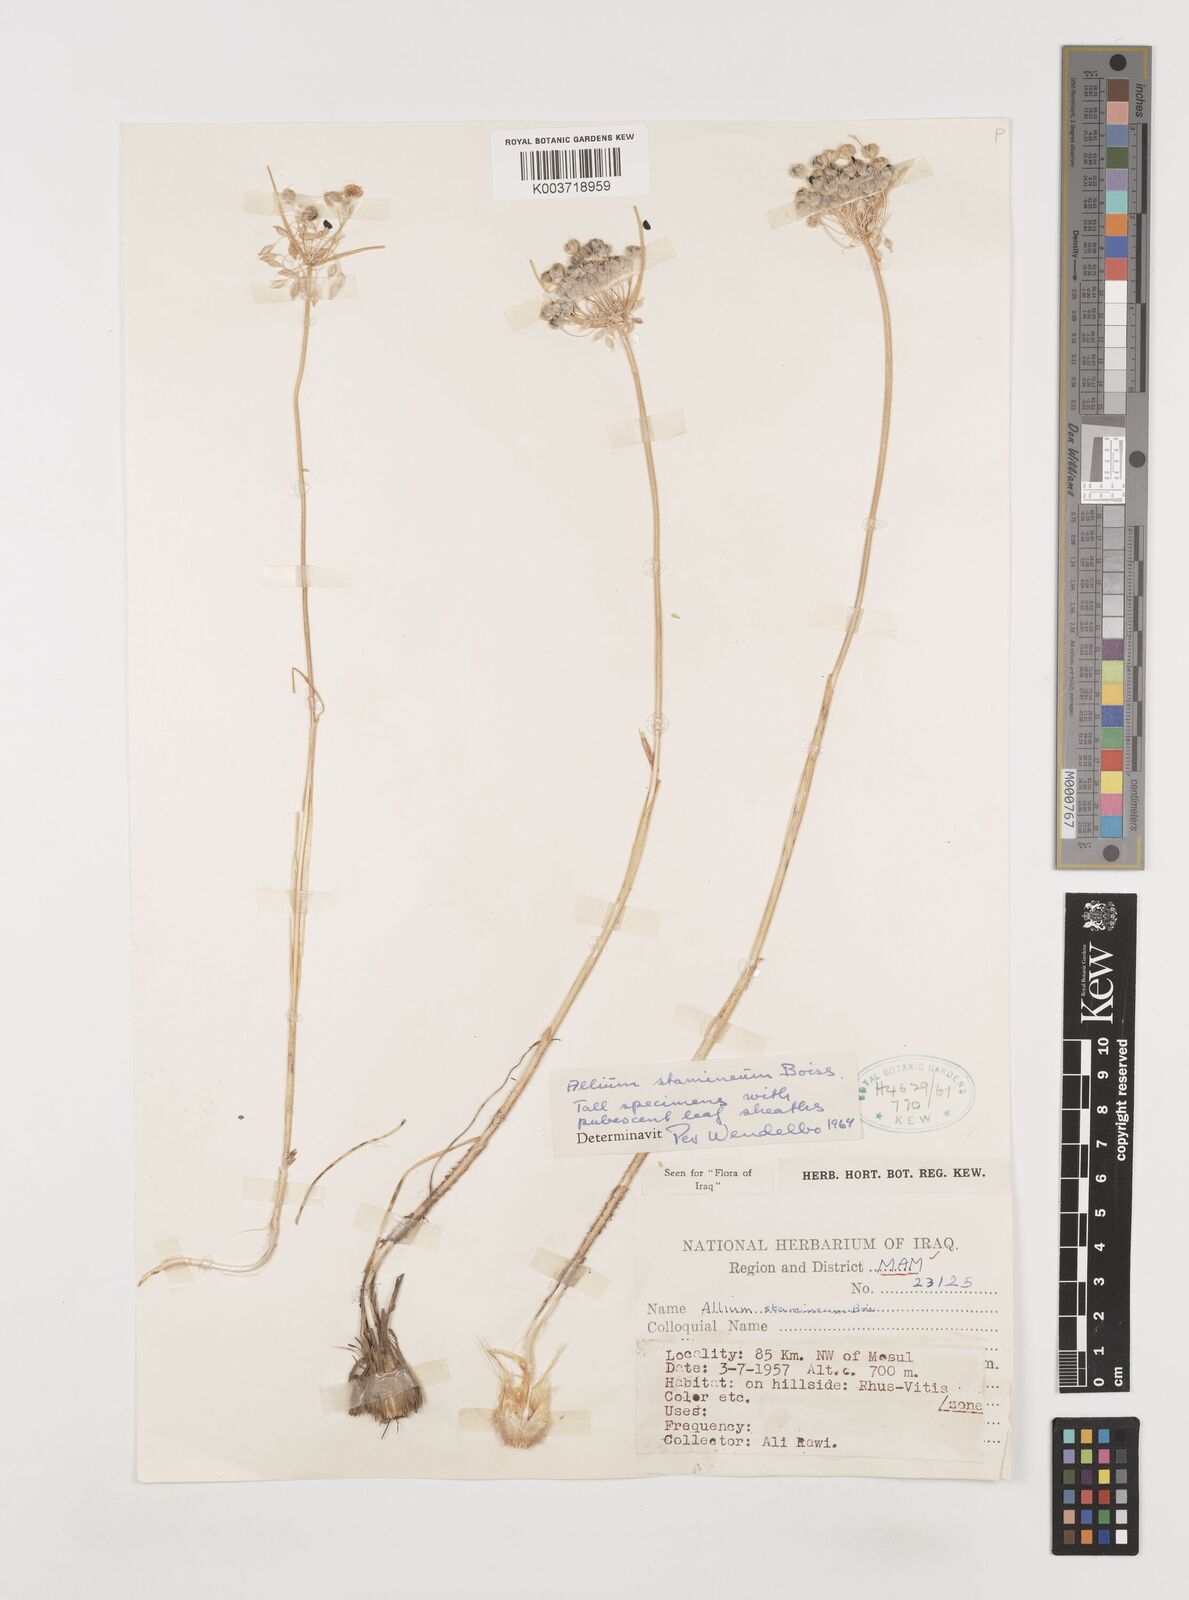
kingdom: Plantae
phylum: Tracheophyta
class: Liliopsida
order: Asparagales
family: Amaryllidaceae
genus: Allium
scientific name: Allium stamineum
